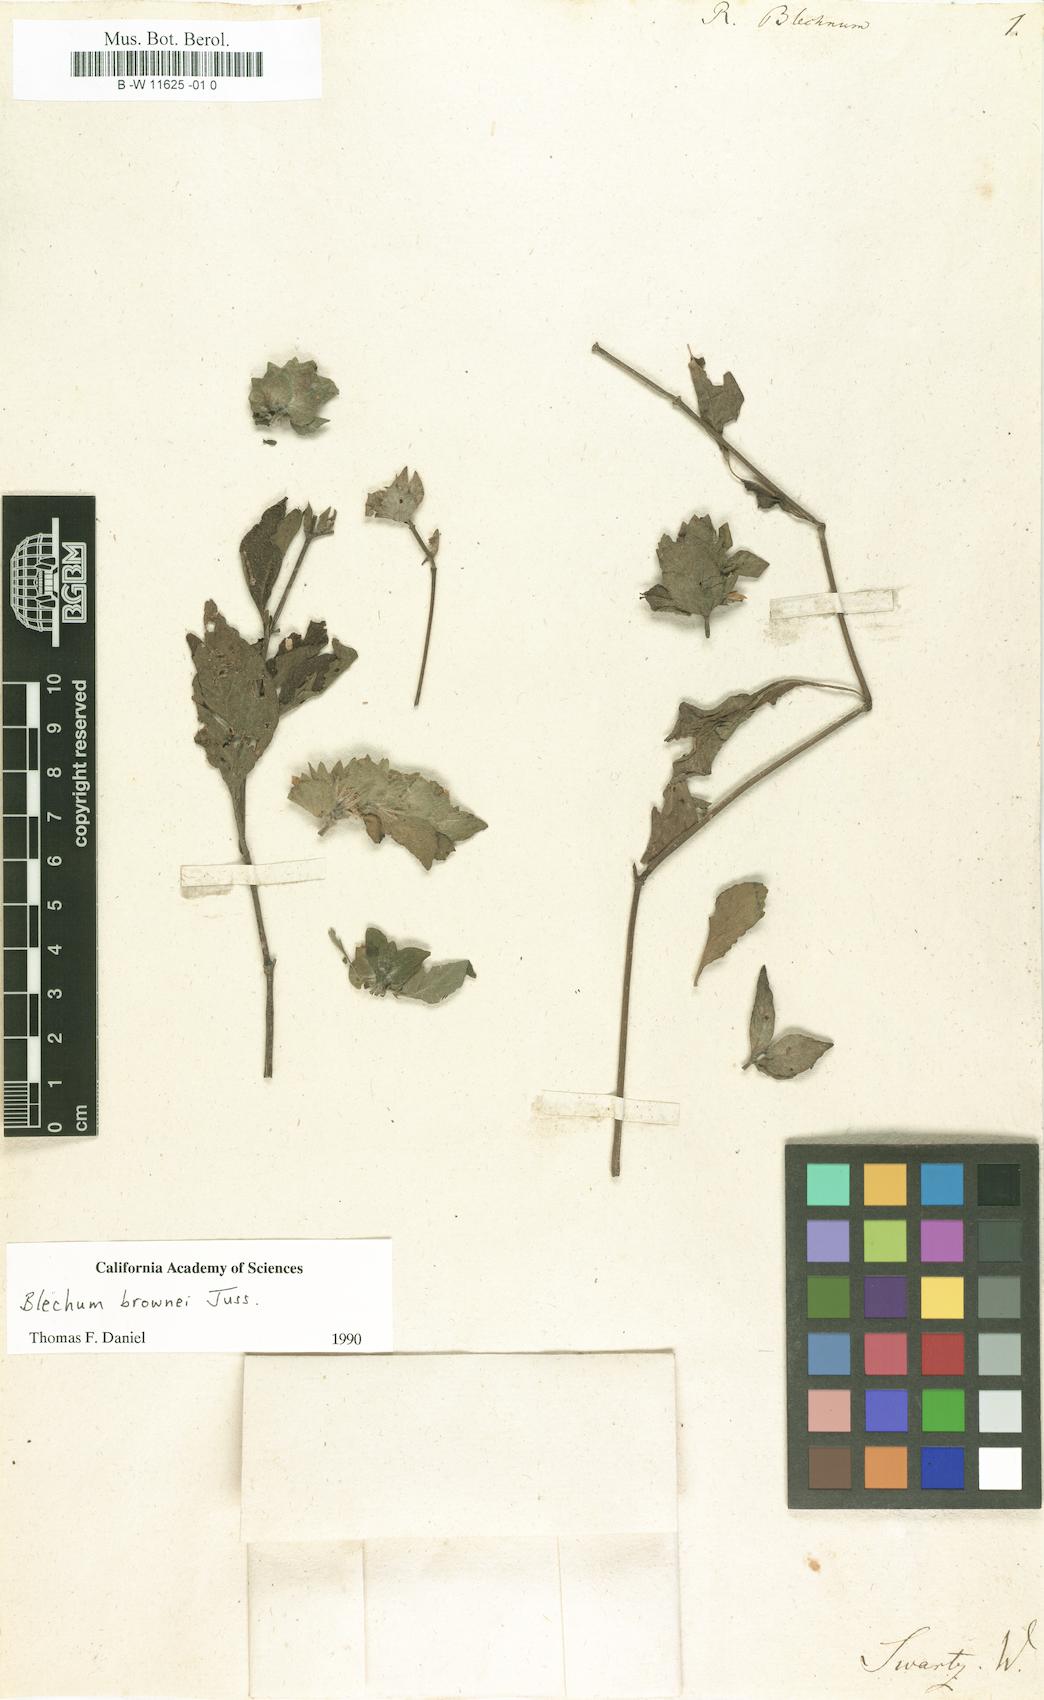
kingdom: Plantae
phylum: Tracheophyta
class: Magnoliopsida
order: Lamiales
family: Acanthaceae
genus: Ruellia
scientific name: Ruellia blechum
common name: Browne's blechum
